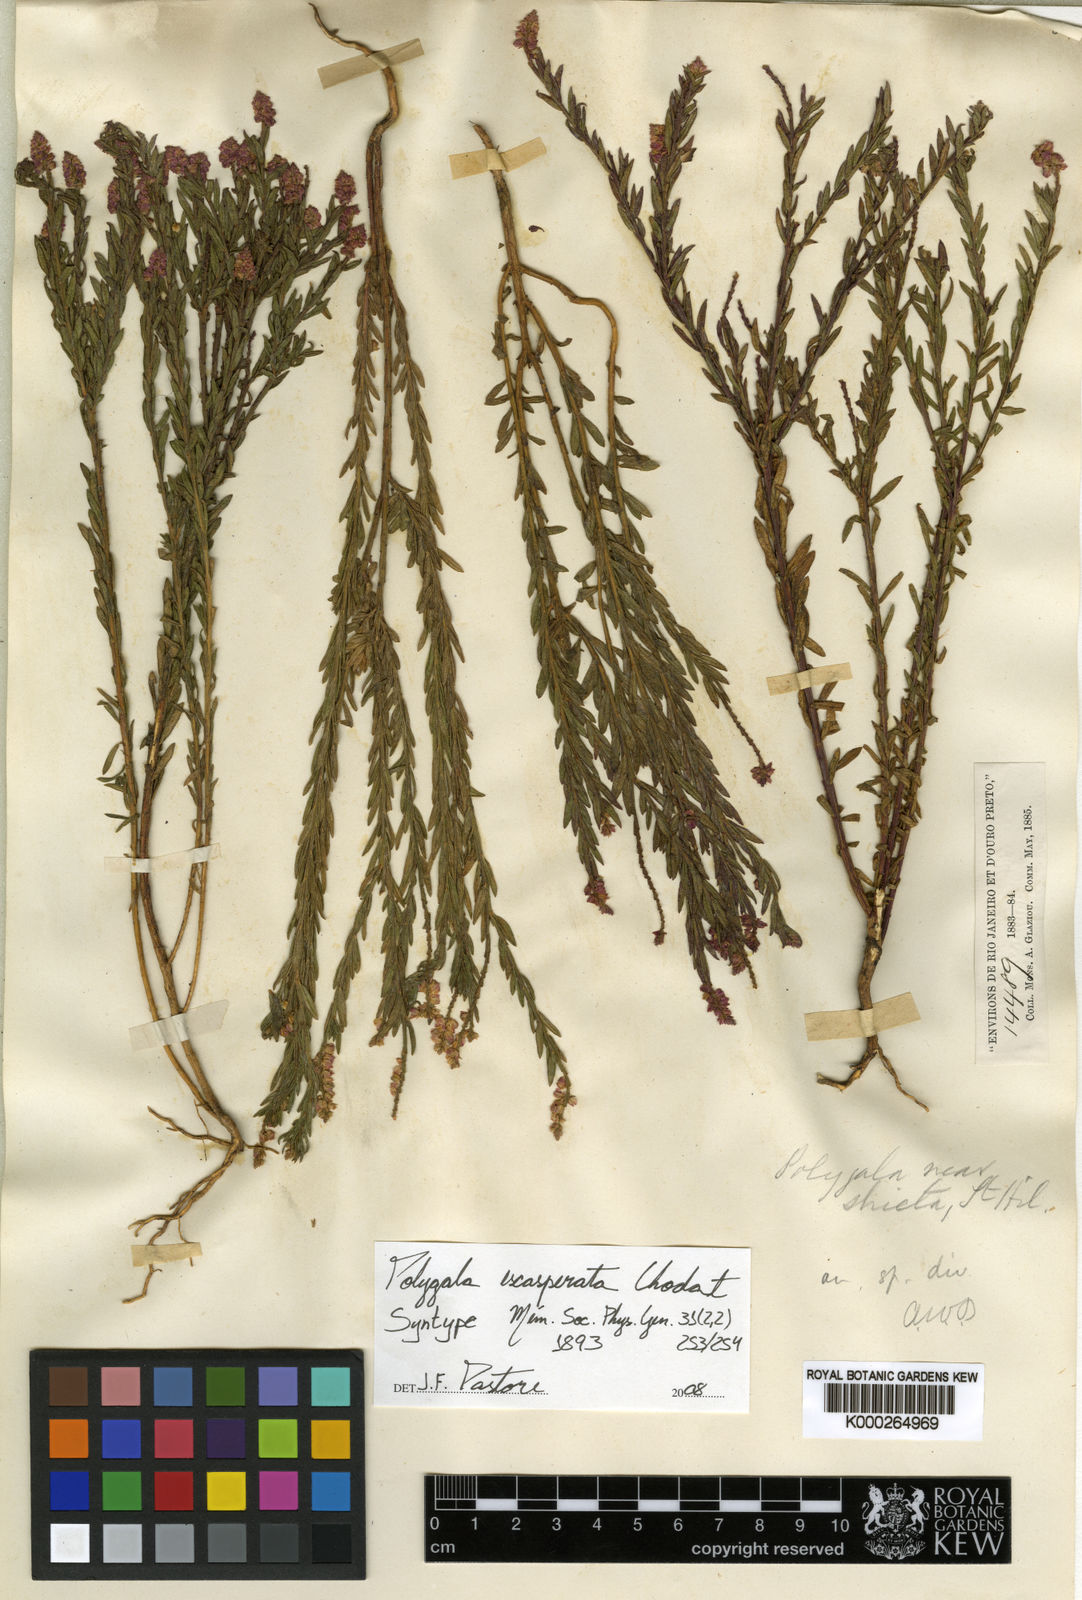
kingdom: Plantae
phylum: Tracheophyta
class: Magnoliopsida
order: Fabales
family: Polygalaceae
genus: Polygala
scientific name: Polygala densifolia
